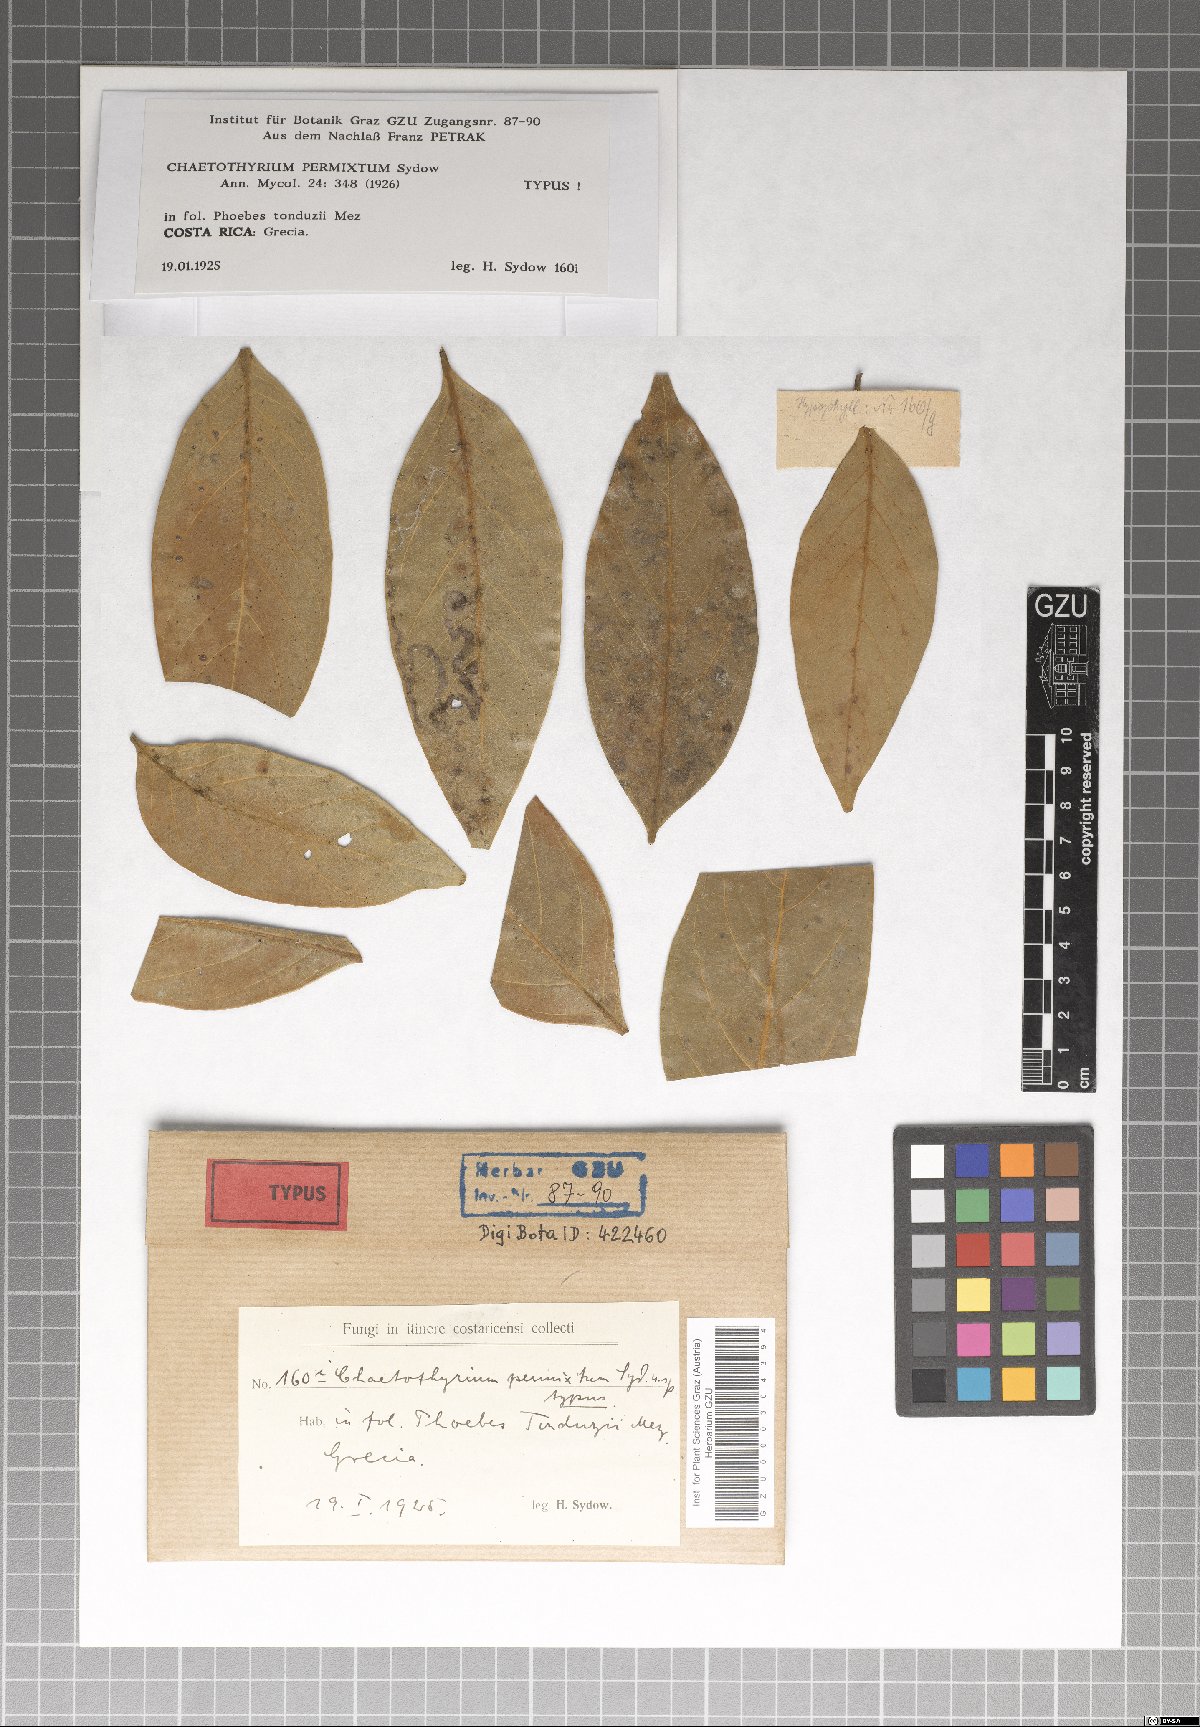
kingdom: Fungi
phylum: Ascomycota
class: Eurotiomycetes
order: Chaetothyriales
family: Chaetothyriaceae
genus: Chaetothyrium
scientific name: Chaetothyrium permixtum
